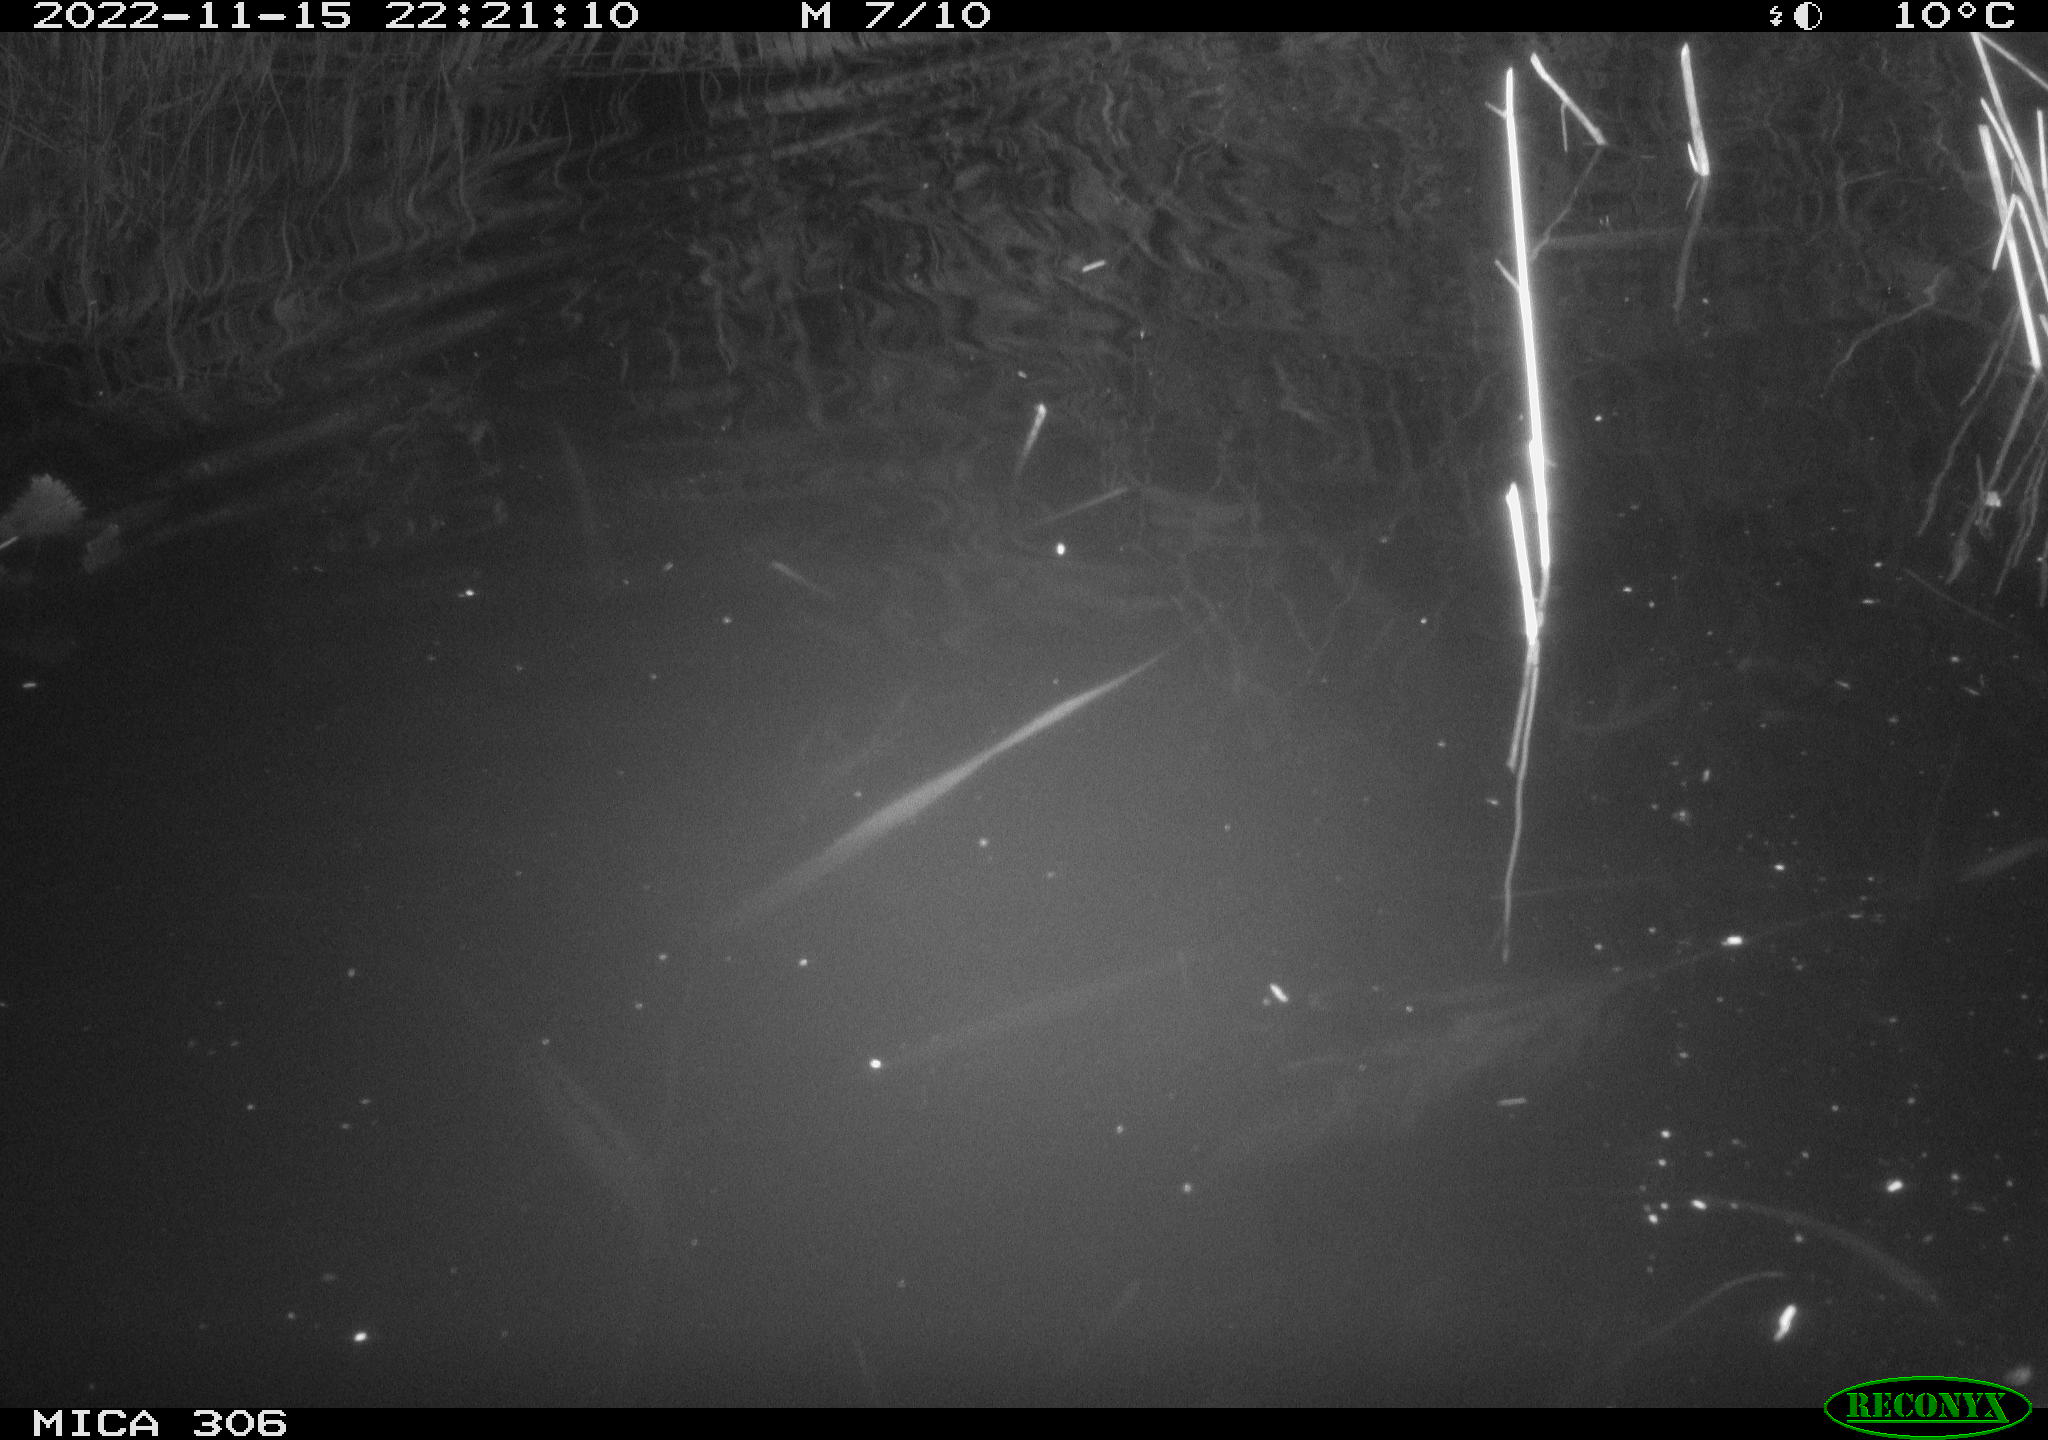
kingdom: Animalia
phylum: Chordata
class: Mammalia
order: Rodentia
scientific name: Rodentia
